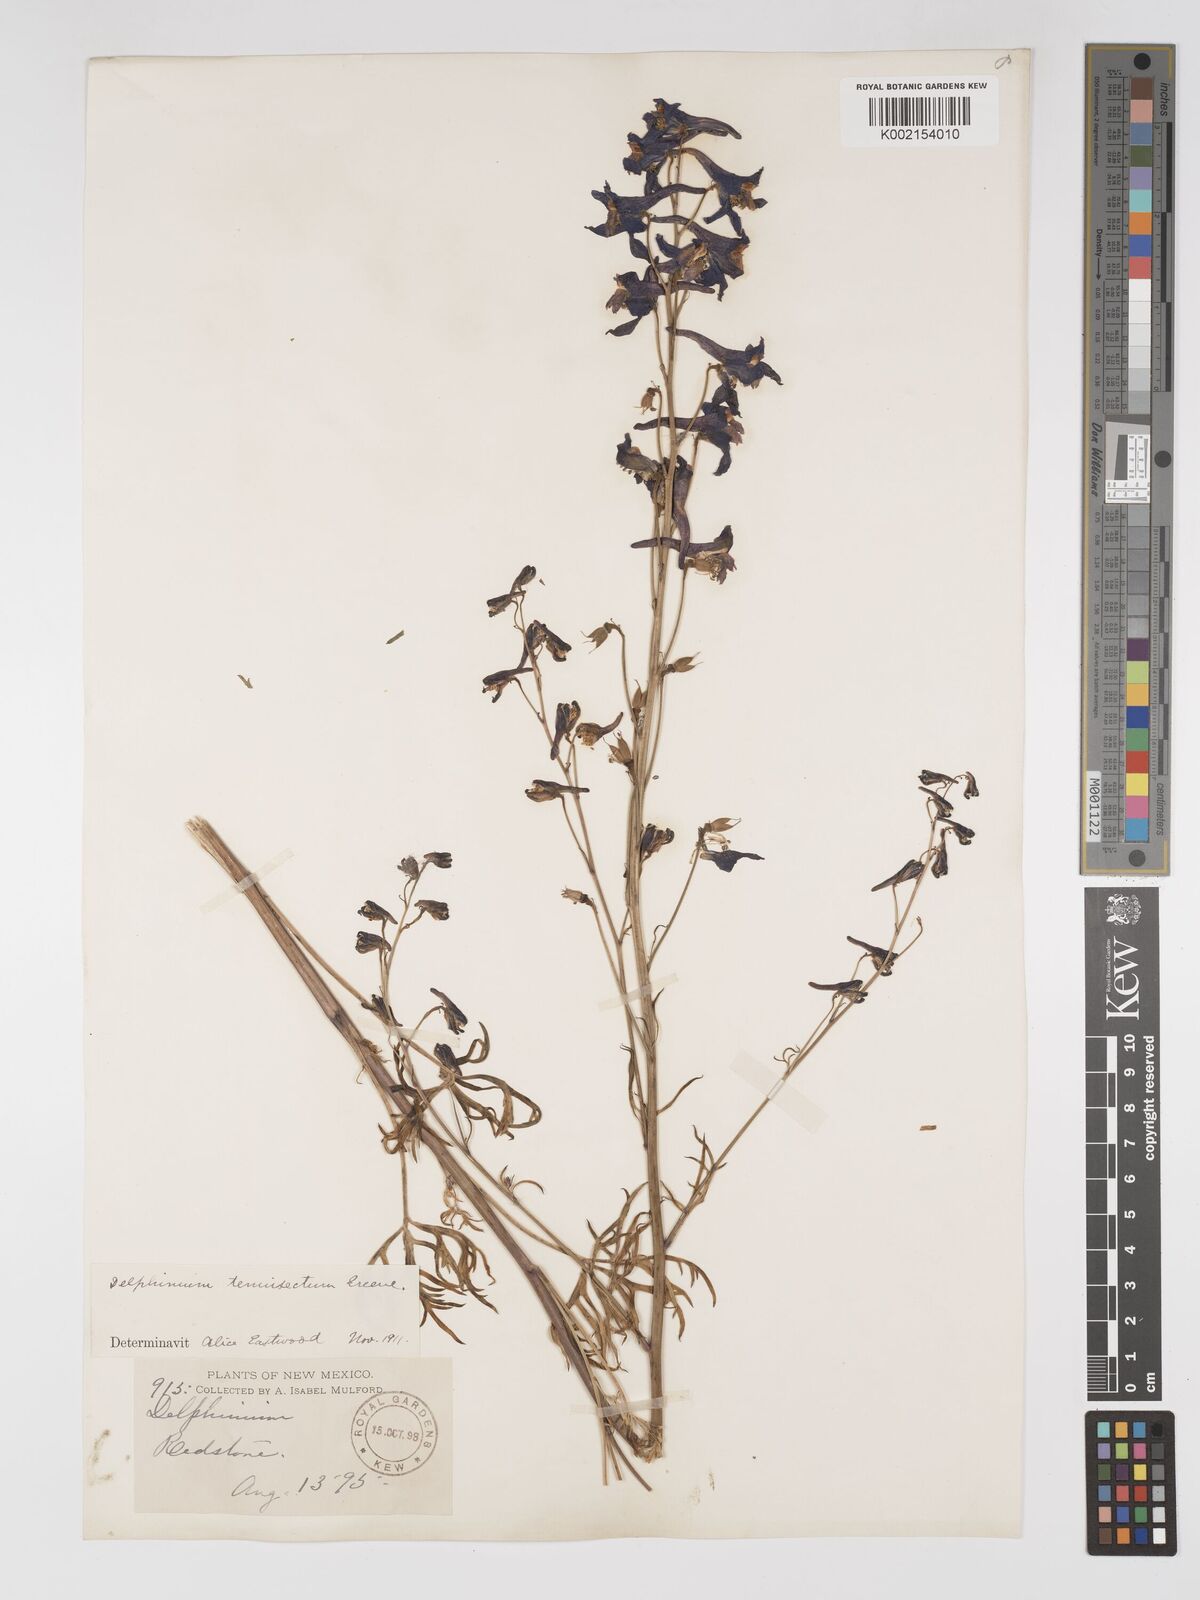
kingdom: Plantae
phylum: Tracheophyta
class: Magnoliopsida
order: Ranunculales
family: Ranunculaceae
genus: Delphinium
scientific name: Delphinium tenuisectum
